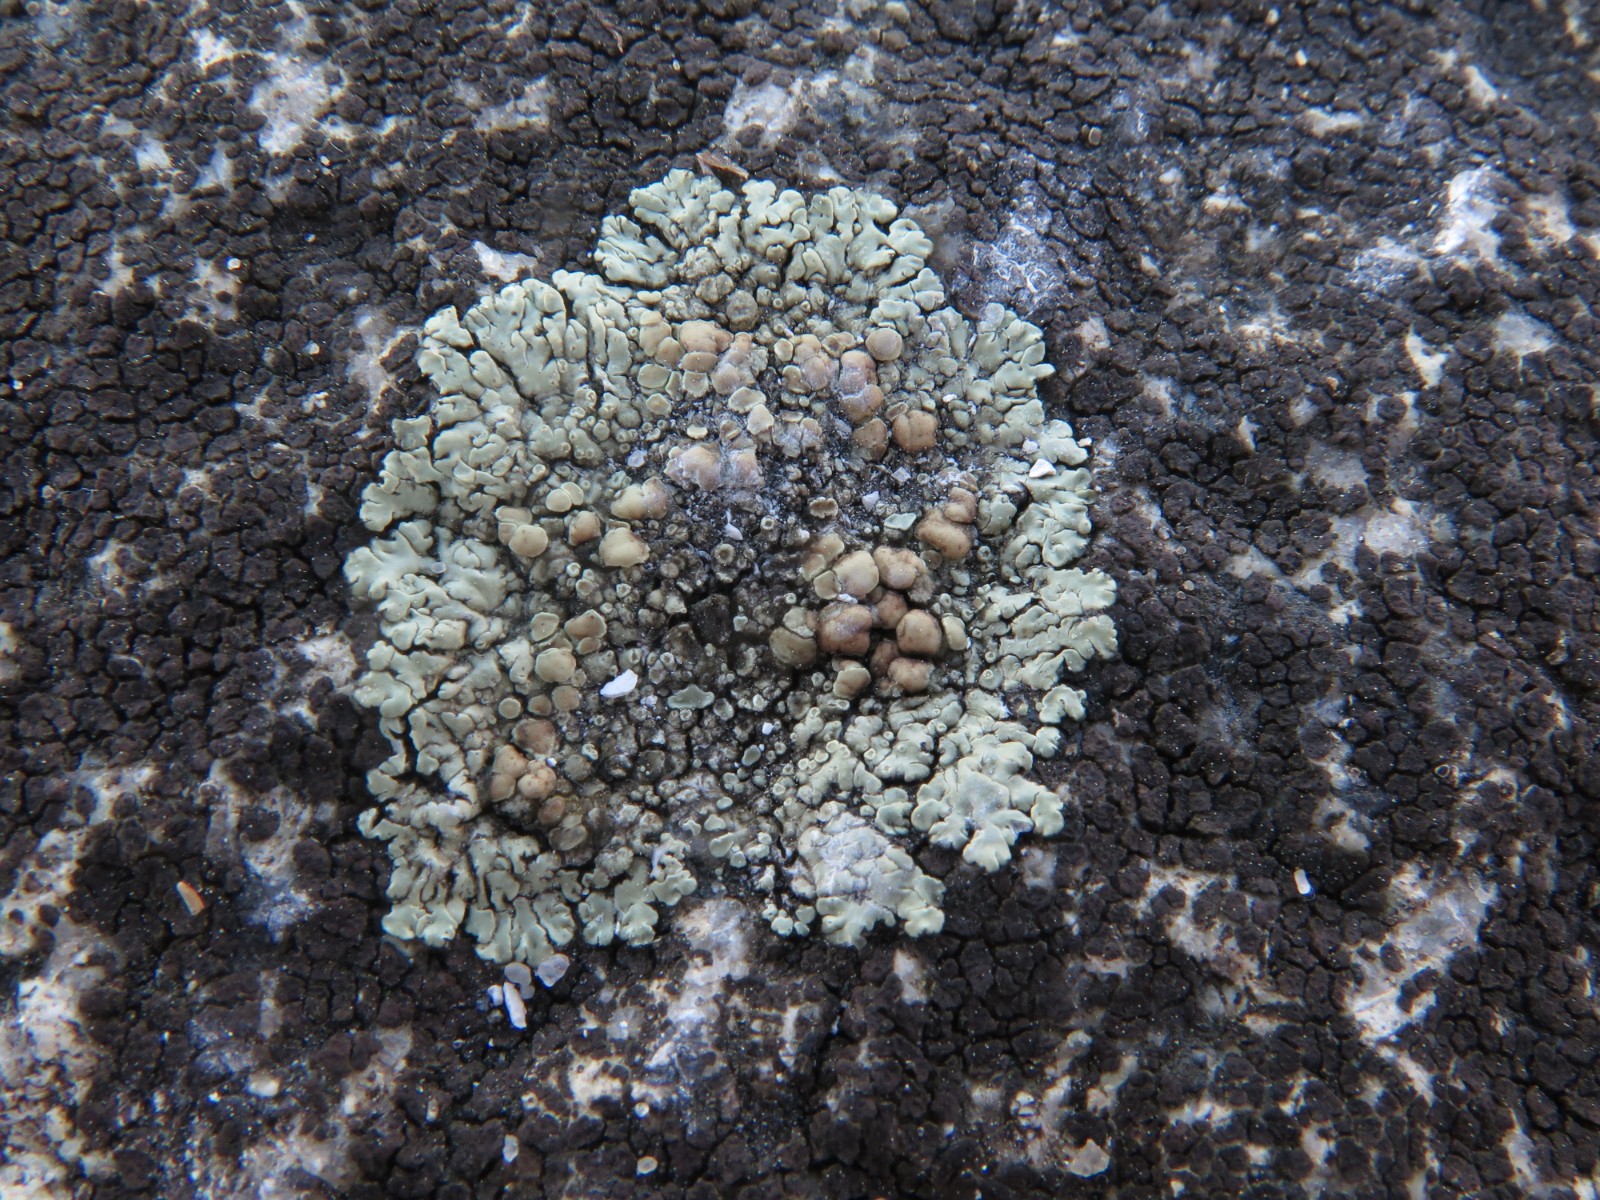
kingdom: Fungi
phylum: Ascomycota
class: Lecanoromycetes
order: Lecanorales
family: Lecanoraceae
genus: Protoparmeliopsis
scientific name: Protoparmeliopsis muralis
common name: randfliget kantskivelav
